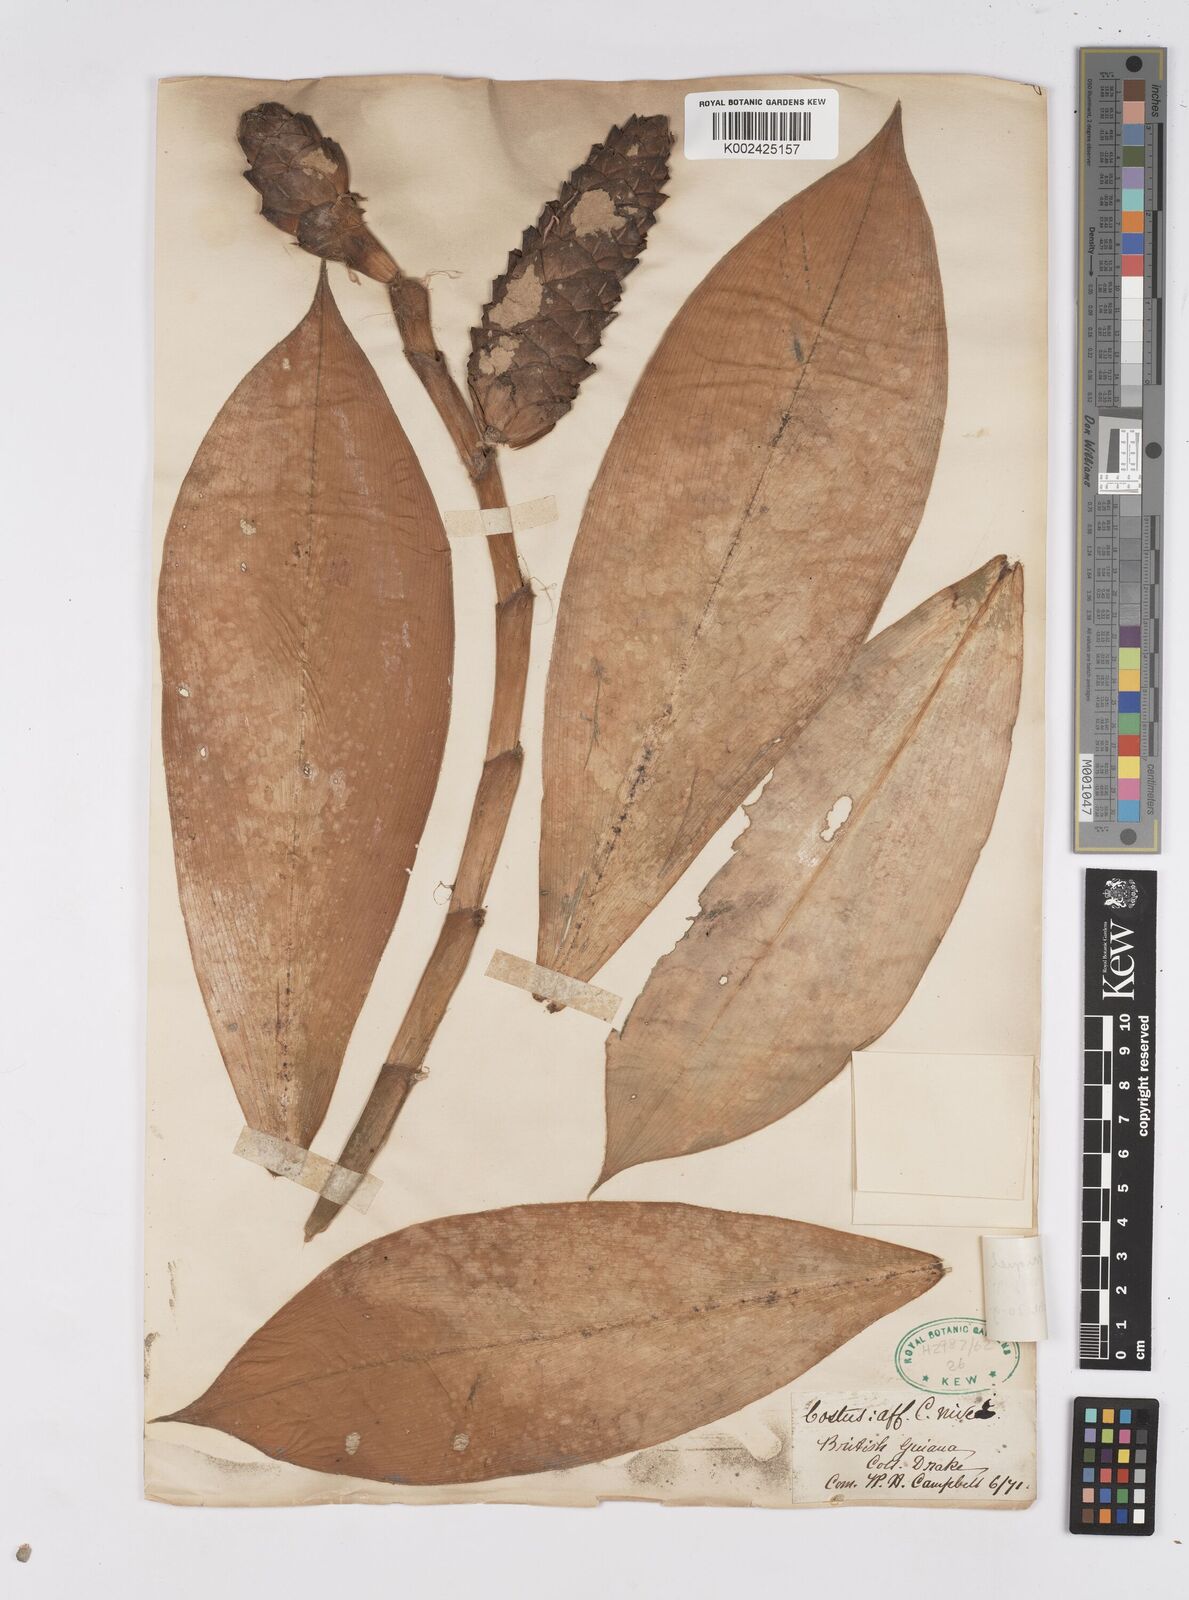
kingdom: Plantae
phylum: Tracheophyta
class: Liliopsida
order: Zingiberales
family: Costaceae
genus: Costus
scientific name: Costus scaber
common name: Spiral head ginger
